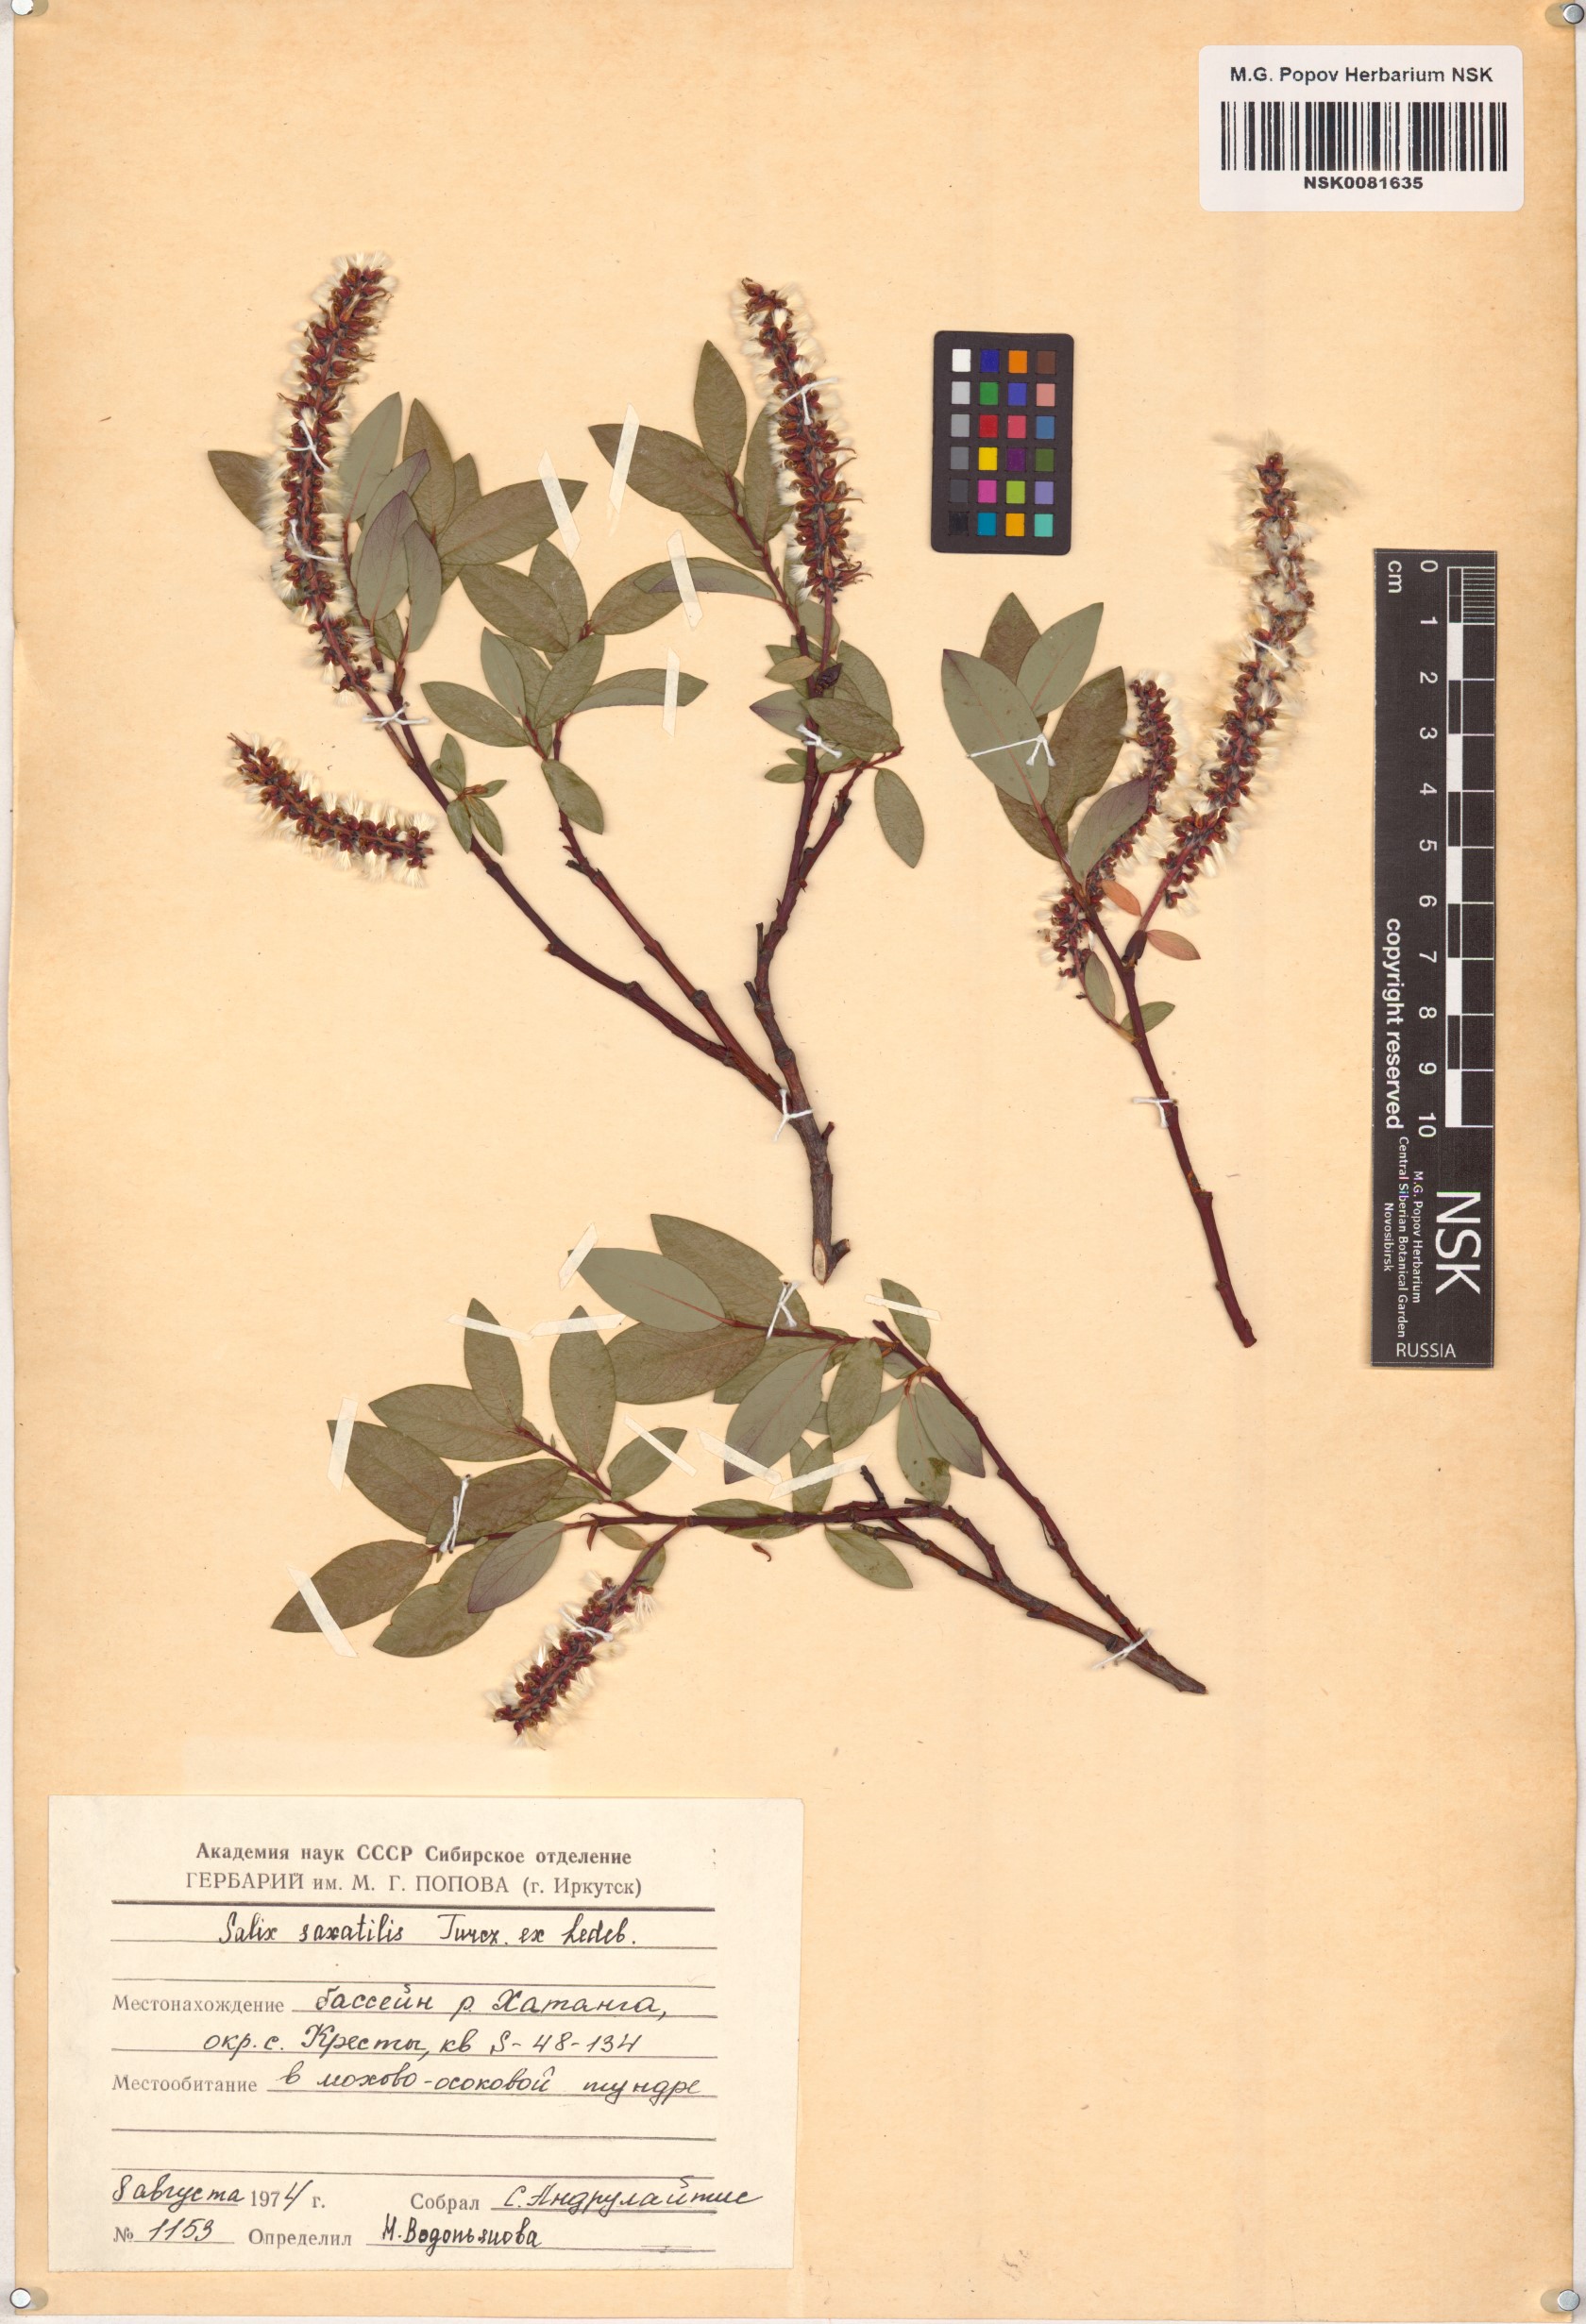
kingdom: Plantae
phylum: Tracheophyta
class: Magnoliopsida
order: Malpighiales
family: Salicaceae
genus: Salix
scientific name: Salix saxatilis
